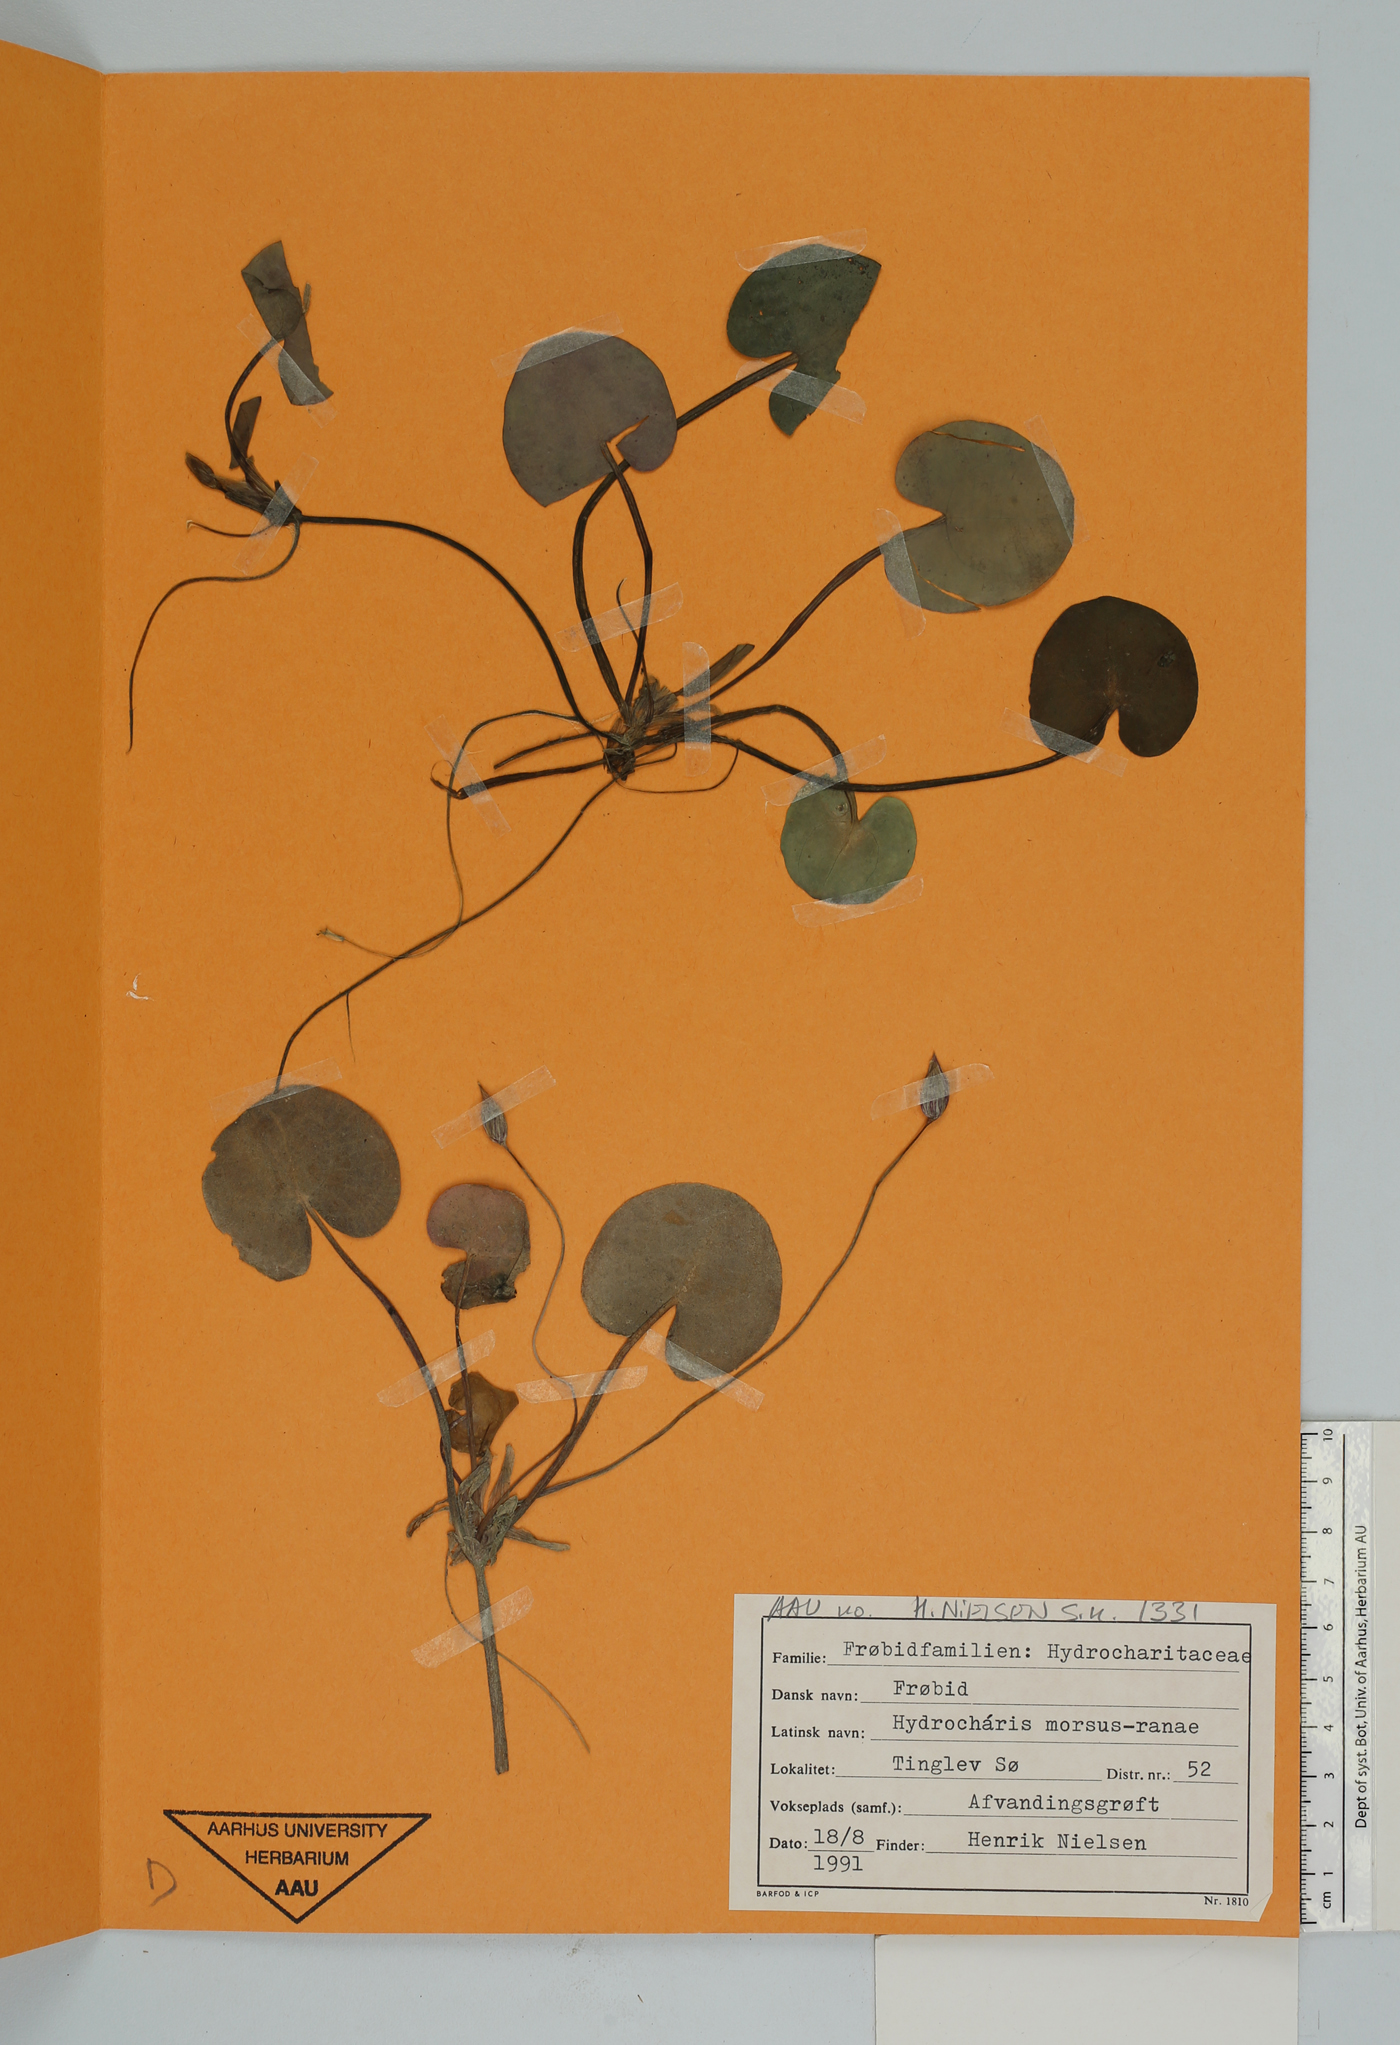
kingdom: Plantae
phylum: Tracheophyta
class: Liliopsida
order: Alismatales
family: Hydrocharitaceae
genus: Hydrocharis
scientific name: Hydrocharis morsus-ranae
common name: Frogbit
